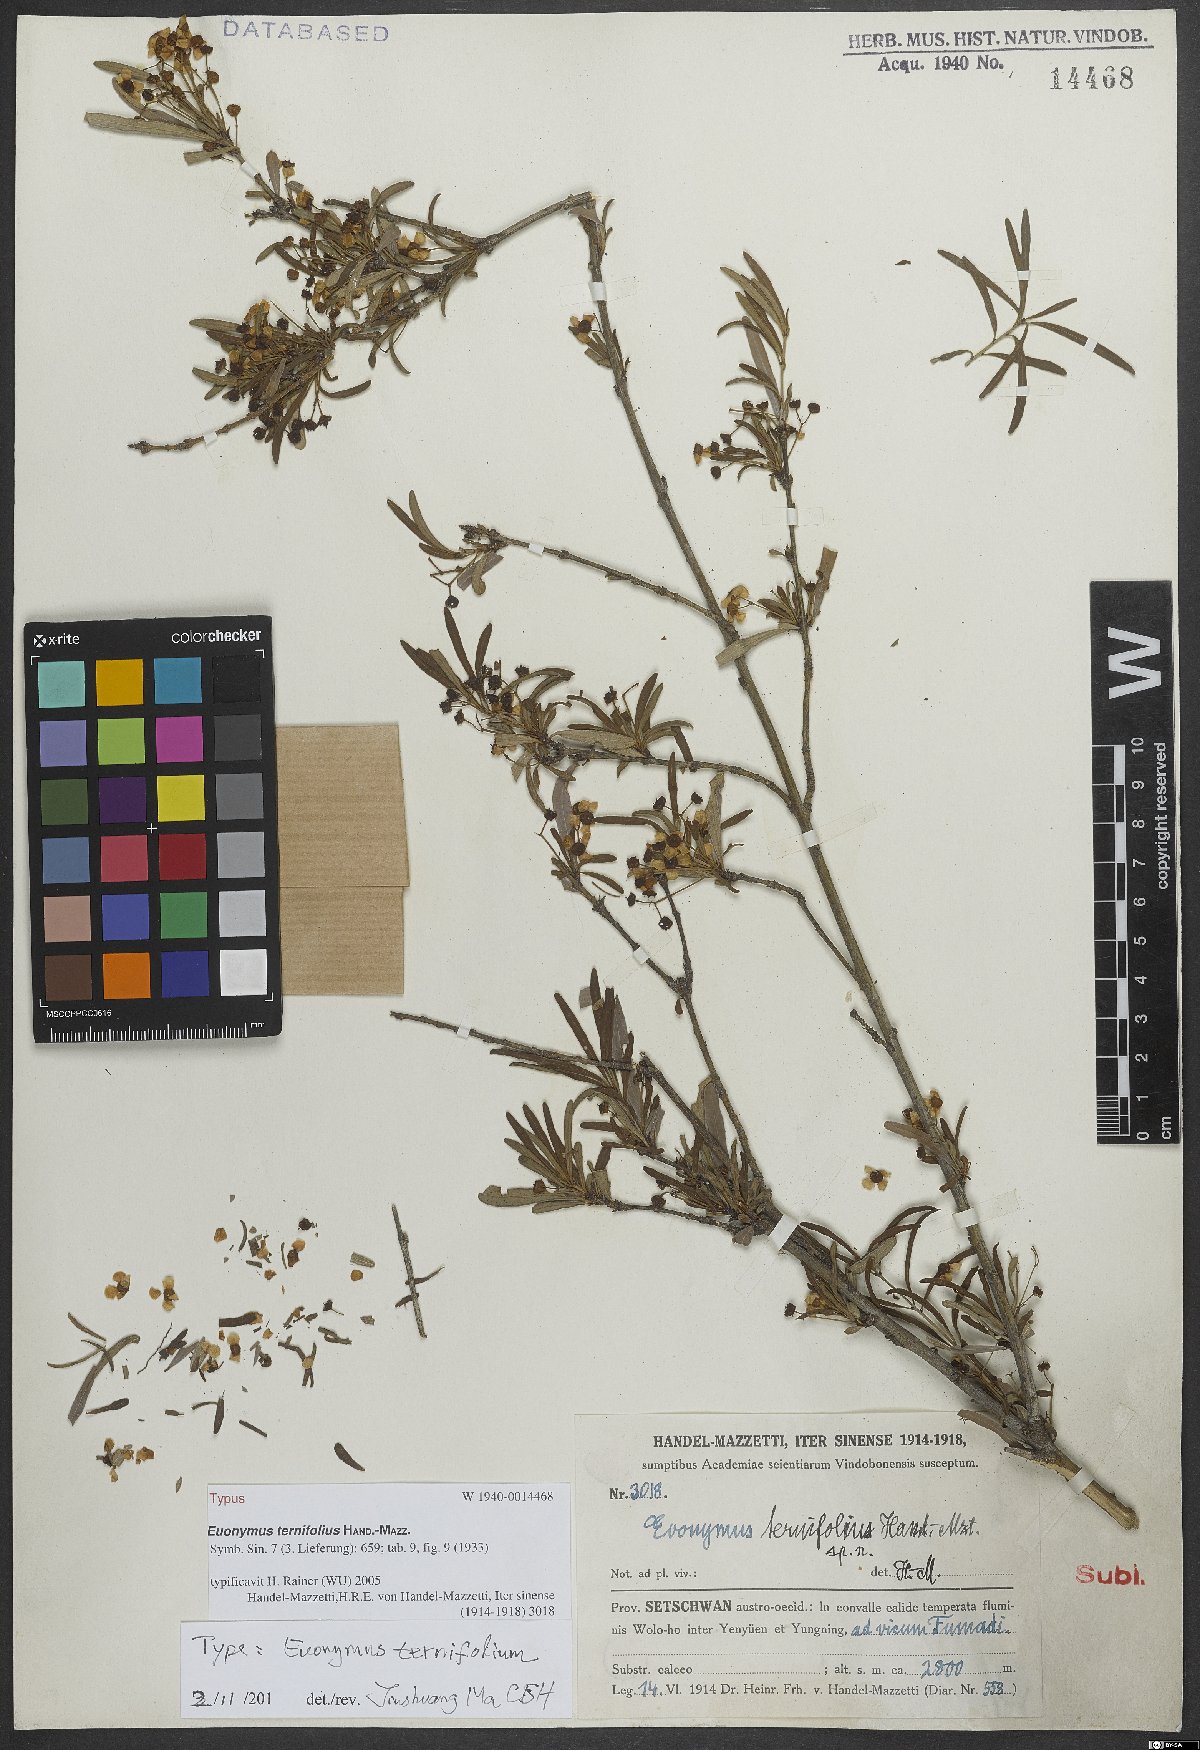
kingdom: Plantae
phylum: Tracheophyta
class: Magnoliopsida
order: Celastrales
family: Celastraceae
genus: Euonymus
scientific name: Euonymus ternifolius
